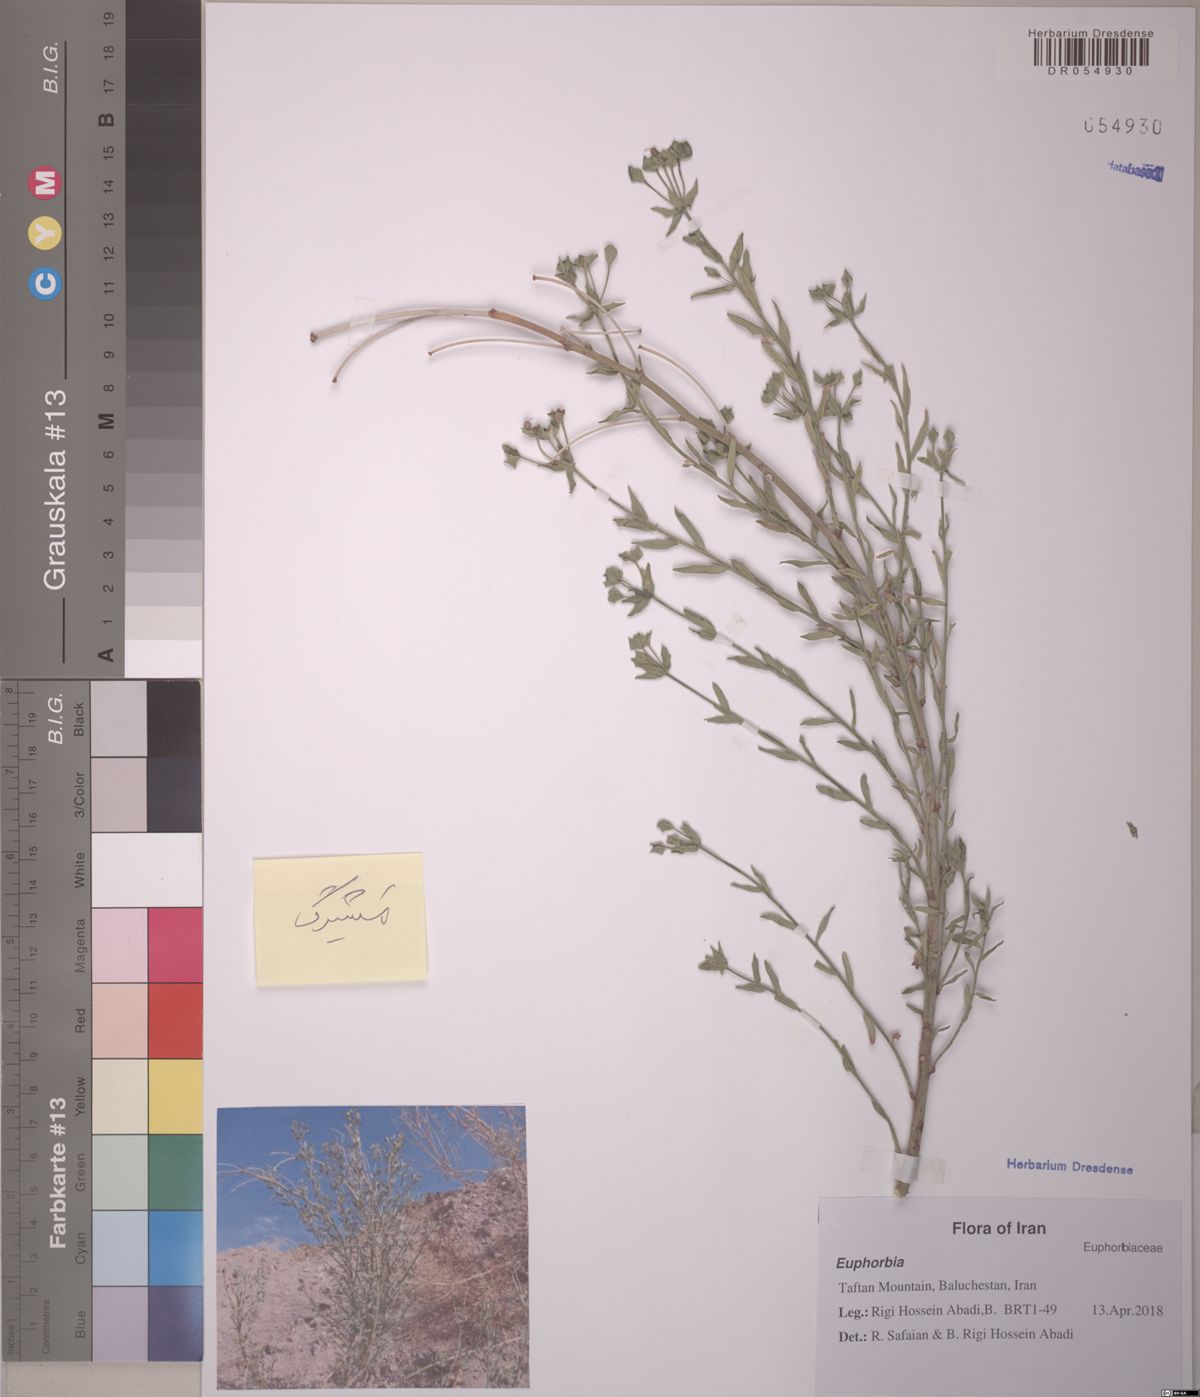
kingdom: Plantae
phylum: Tracheophyta
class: Magnoliopsida
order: Malpighiales
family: Euphorbiaceae
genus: Euphorbia
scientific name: Euphorbia buhsei
